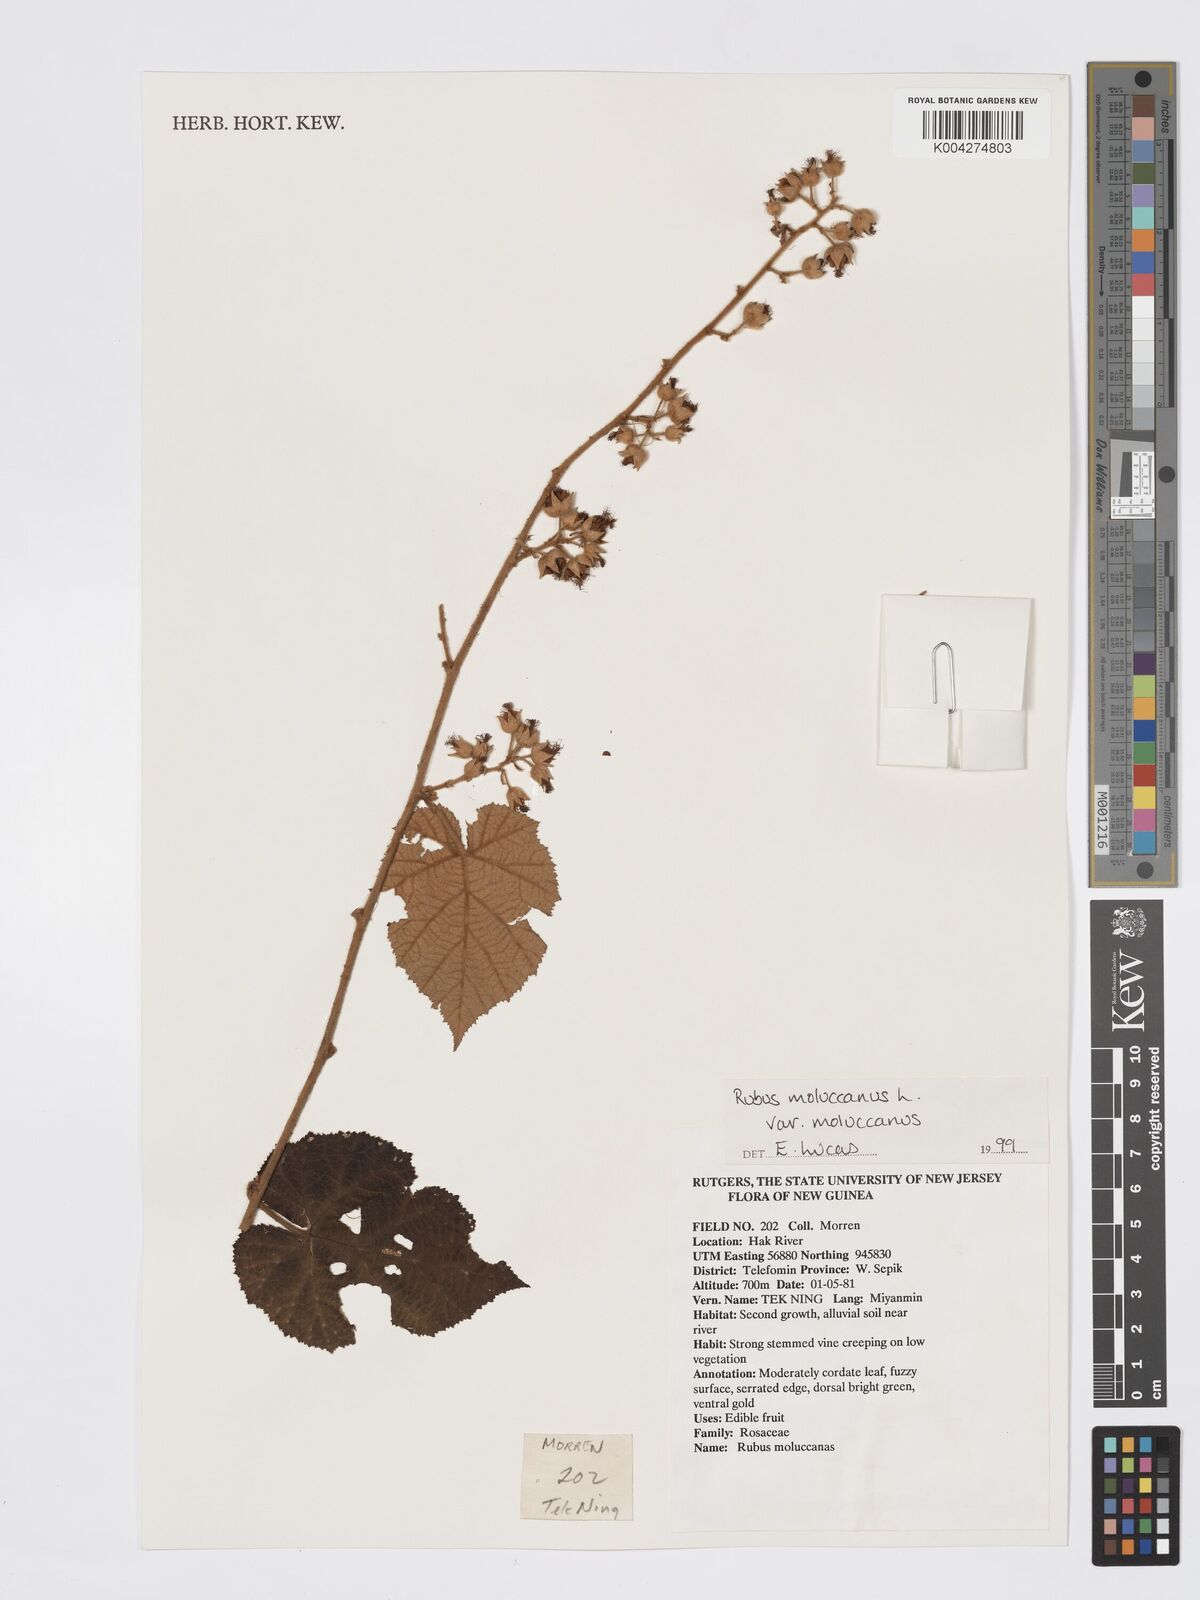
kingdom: Plantae
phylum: Tracheophyta
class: Magnoliopsida
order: Rosales
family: Rosaceae
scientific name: Rosaceae
